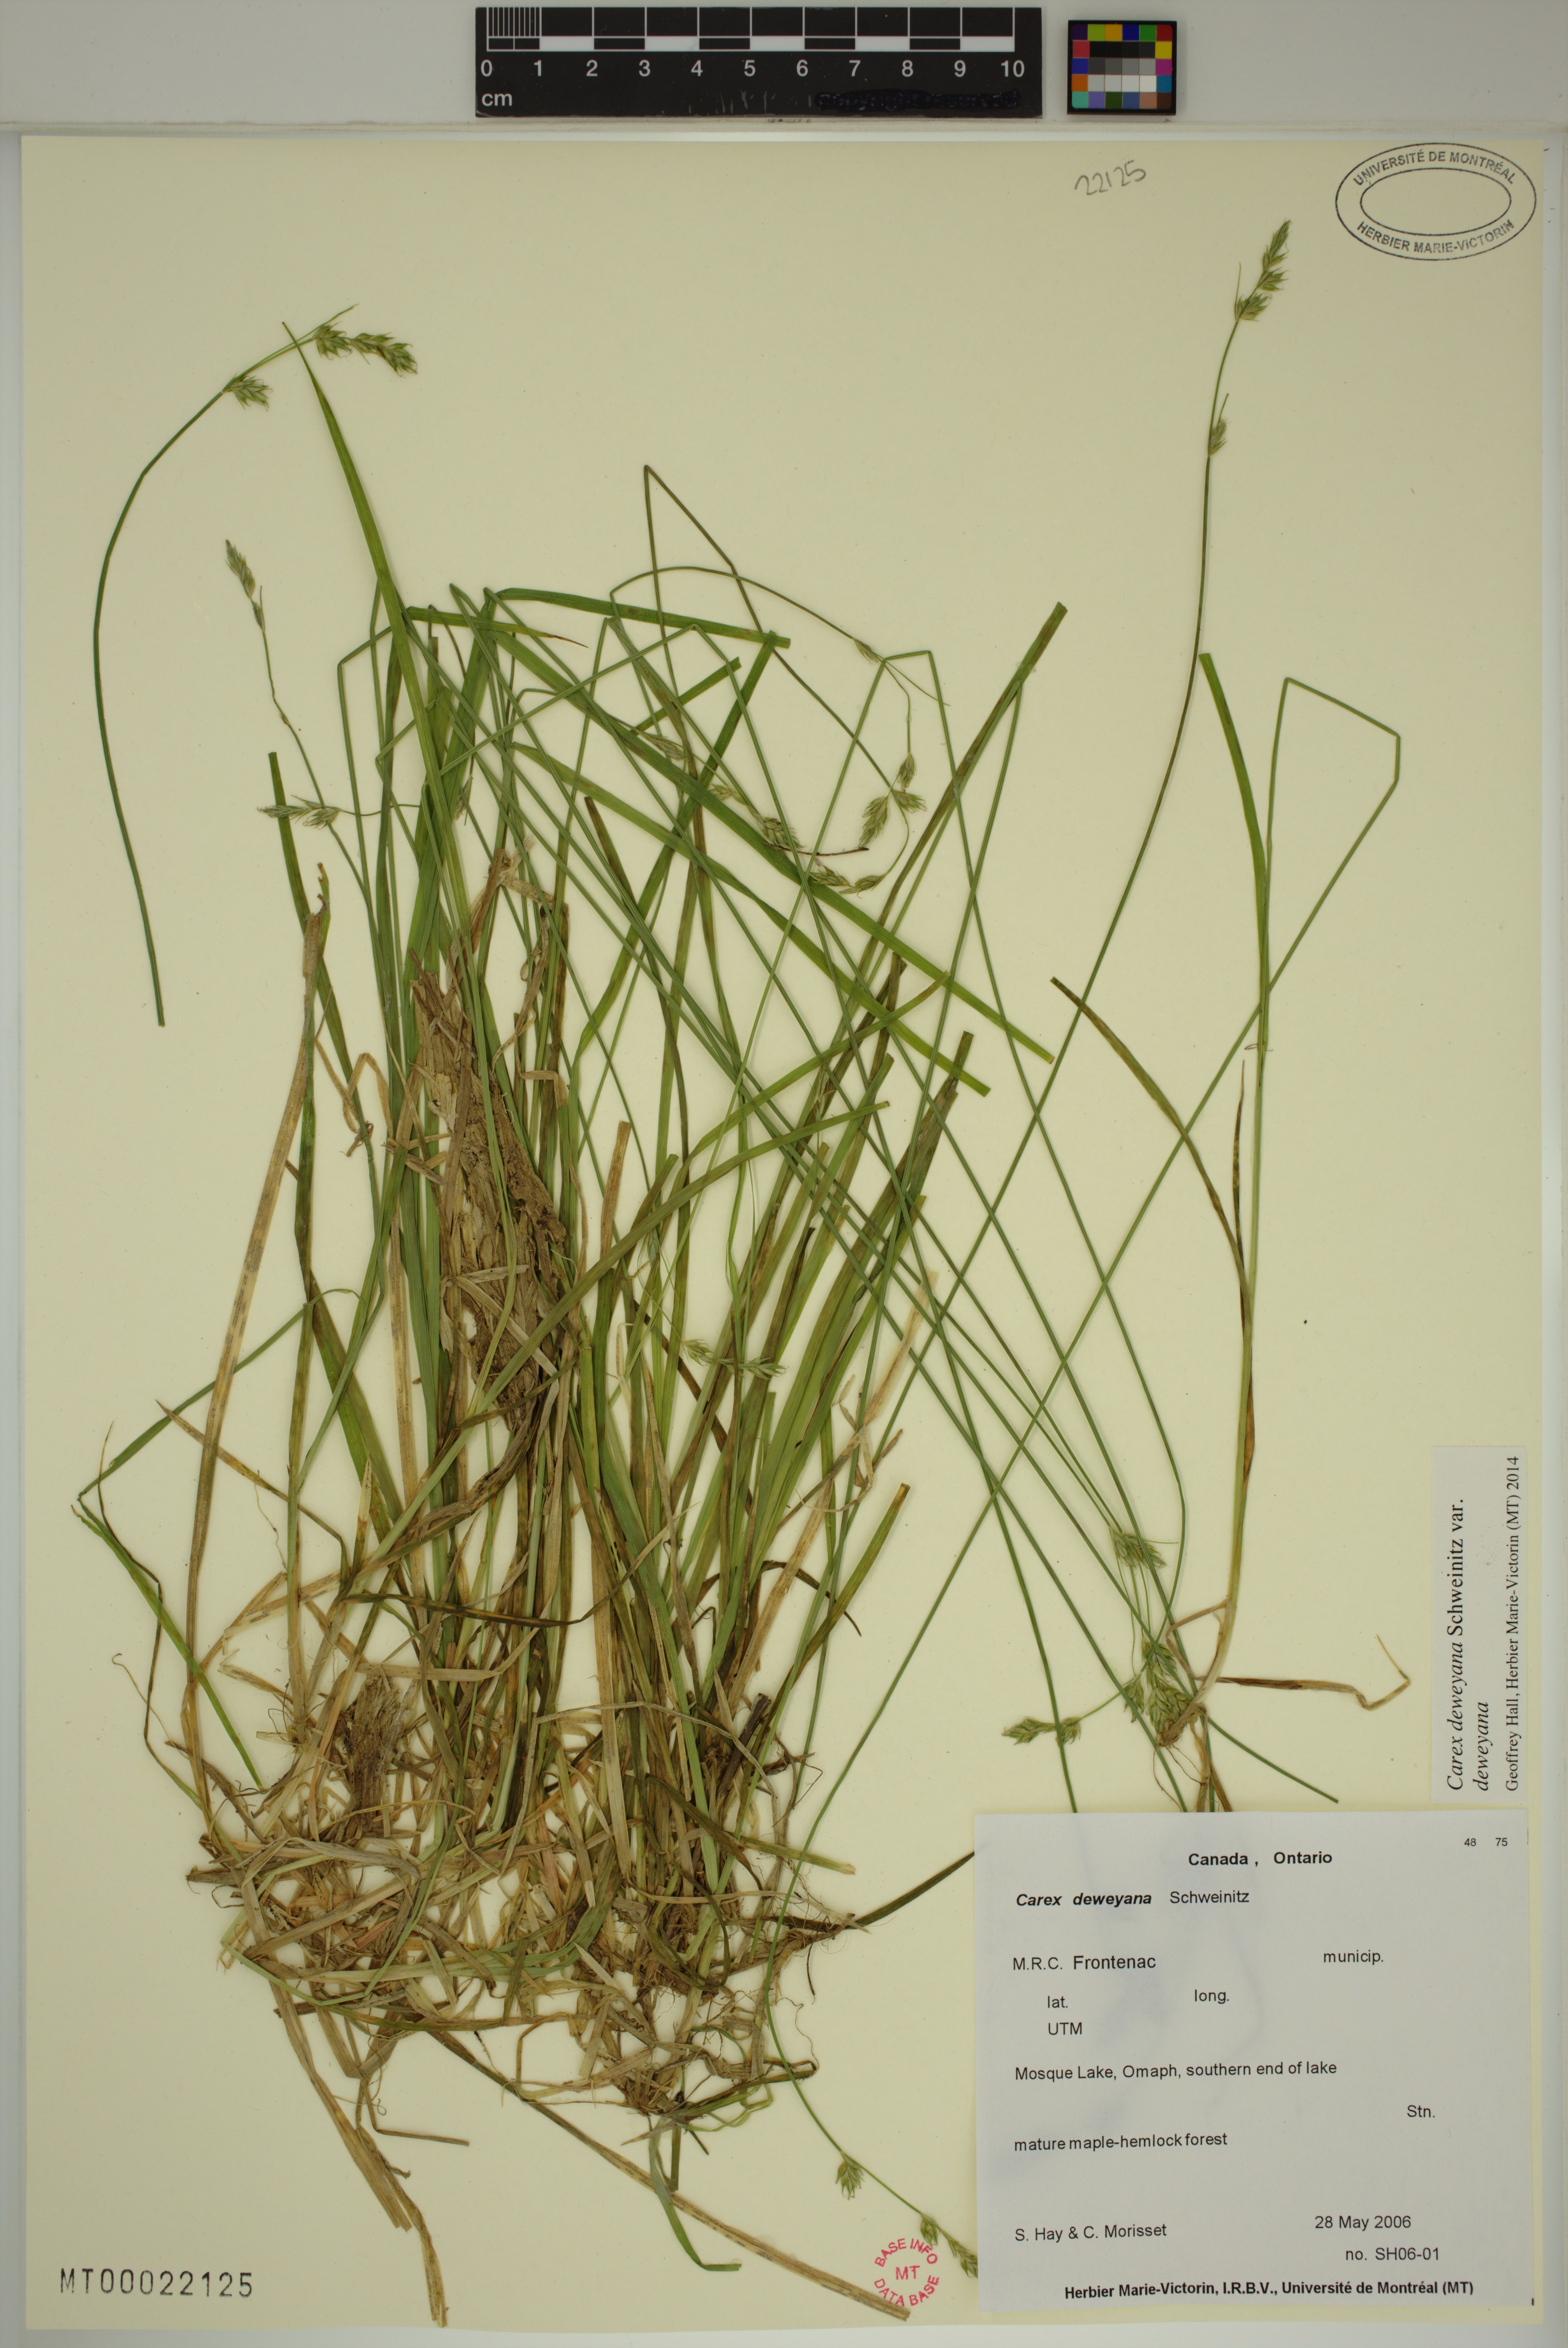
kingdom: Plantae
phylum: Tracheophyta
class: Liliopsida
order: Poales
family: Cyperaceae
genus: Carex
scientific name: Carex deweyana
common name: Dewey's sedge
